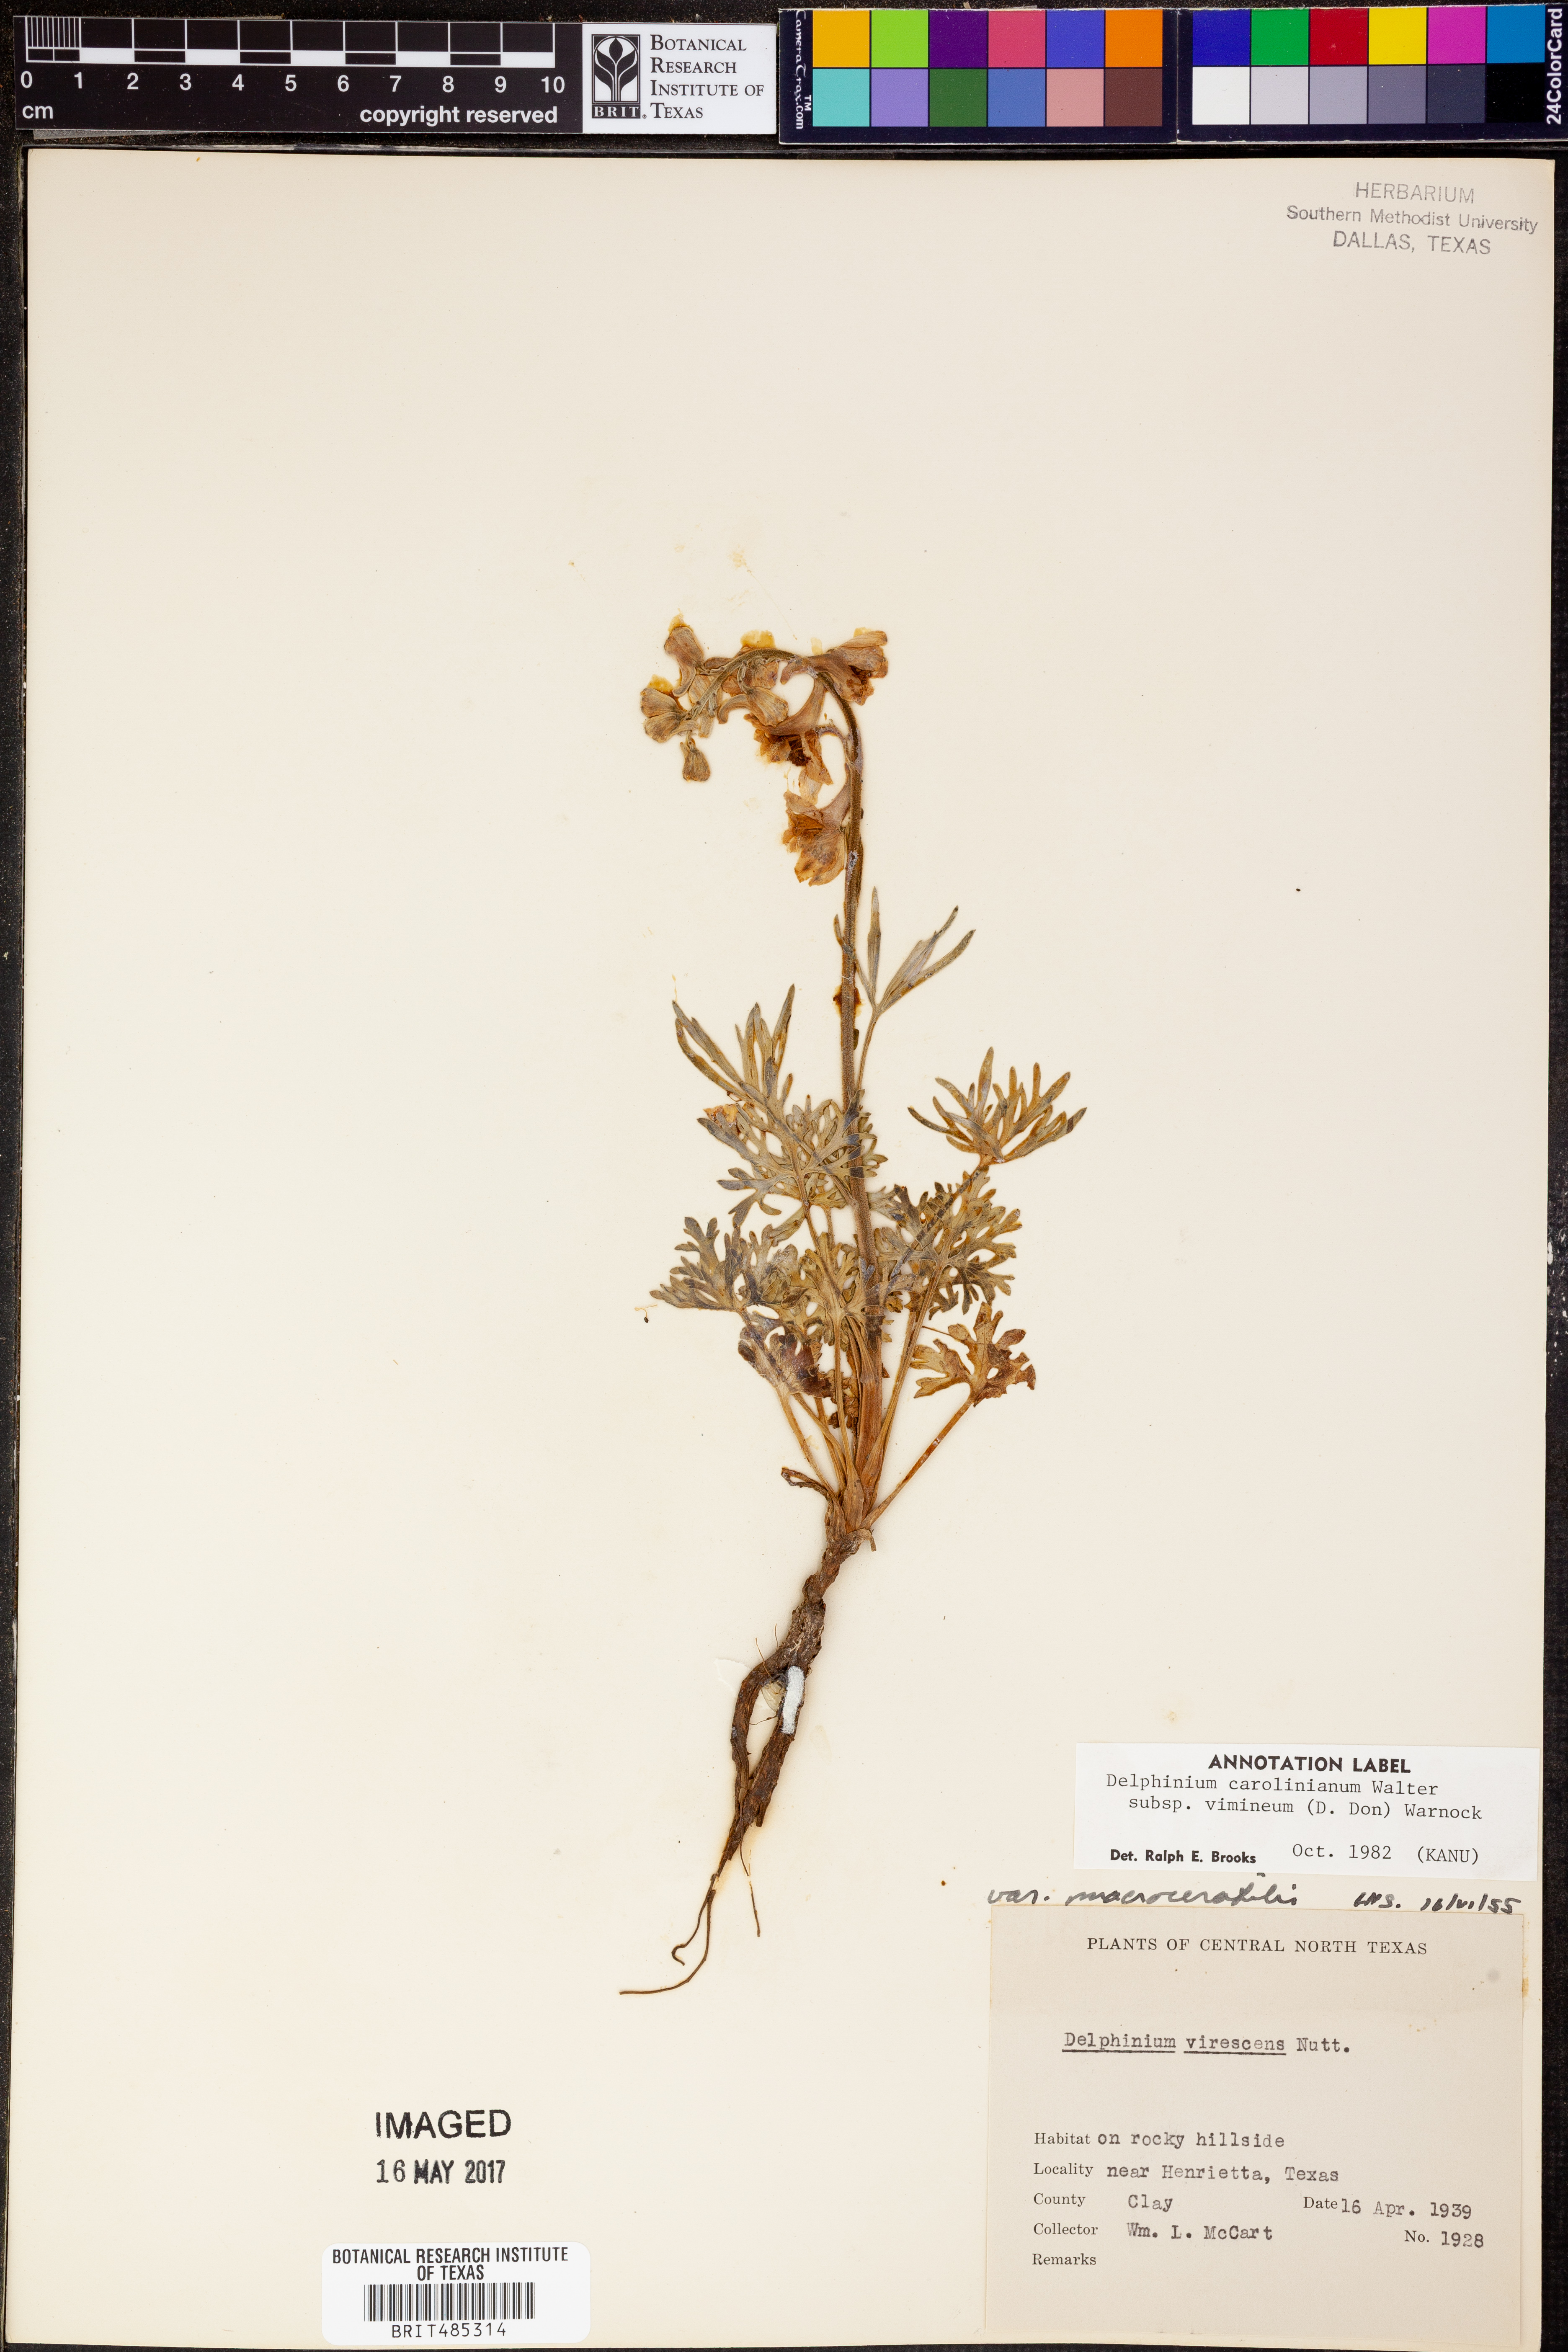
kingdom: Plantae
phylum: Tracheophyta
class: Magnoliopsida
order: Ranunculales
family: Ranunculaceae
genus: Delphinium
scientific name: Delphinium carolinianum
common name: Carolina larkspur
